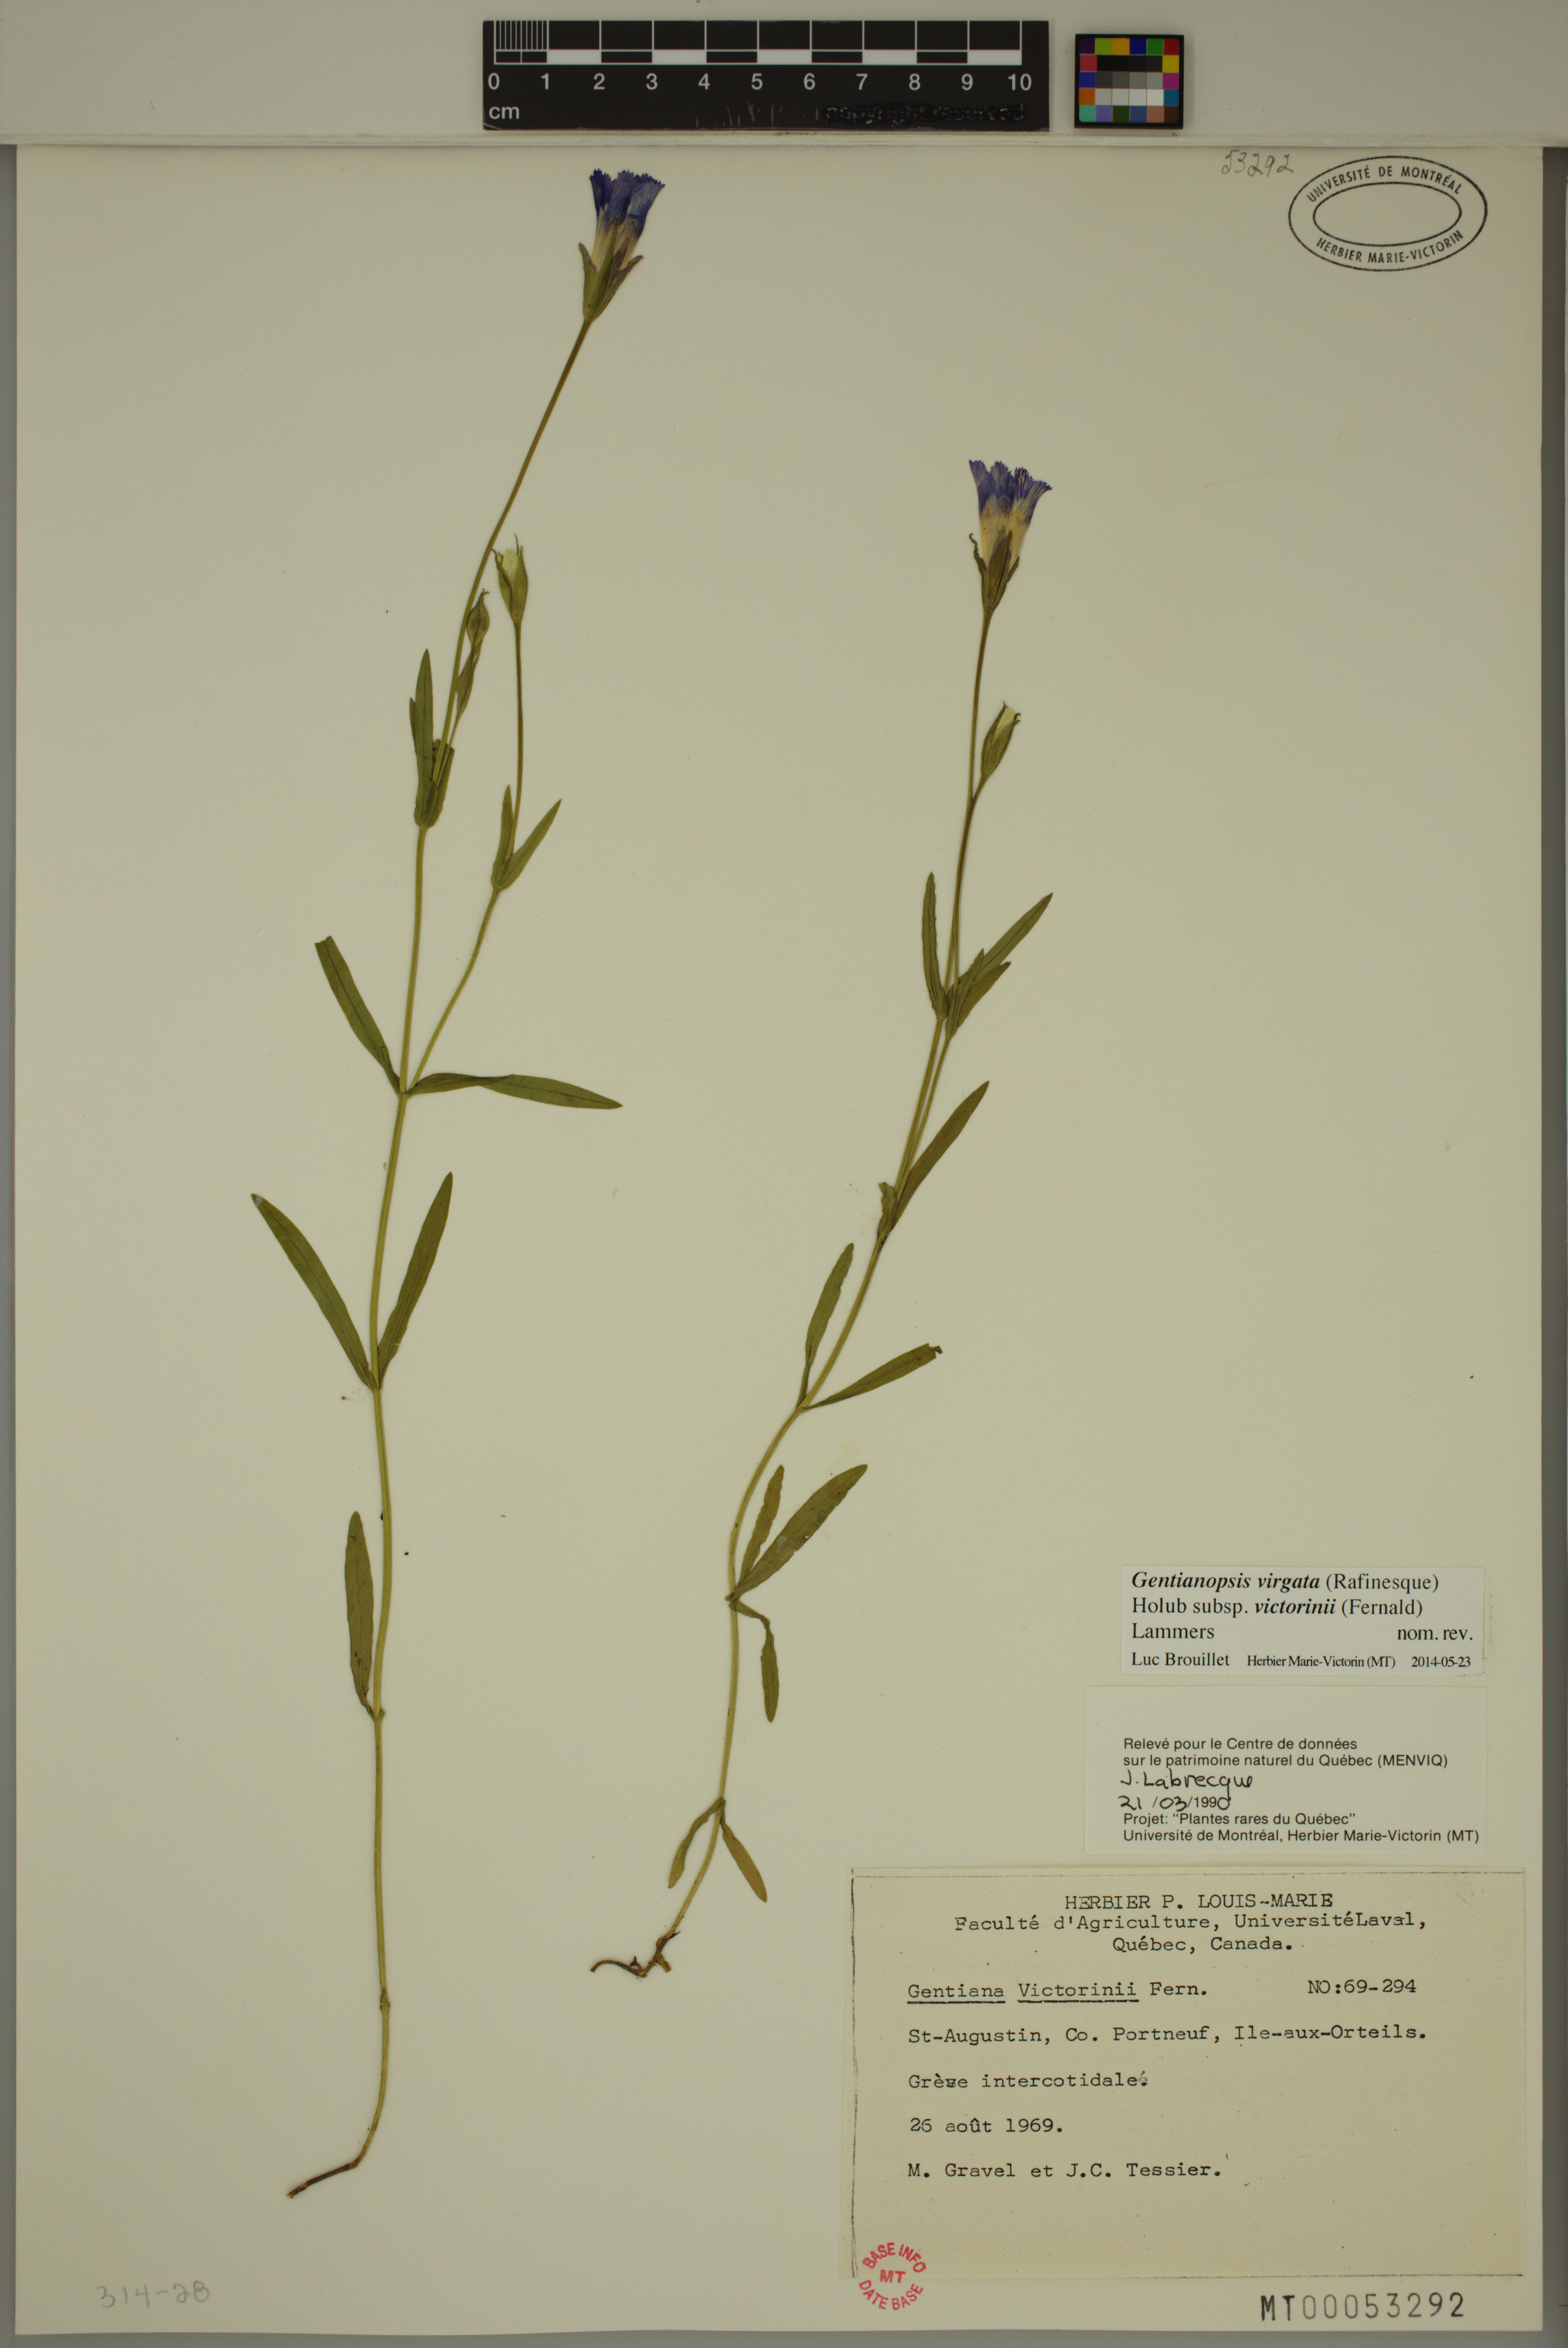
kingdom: Plantae
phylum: Tracheophyta
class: Magnoliopsida
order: Gentianales
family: Gentianaceae
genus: Gentianopsis
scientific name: Gentianopsis victorinii
